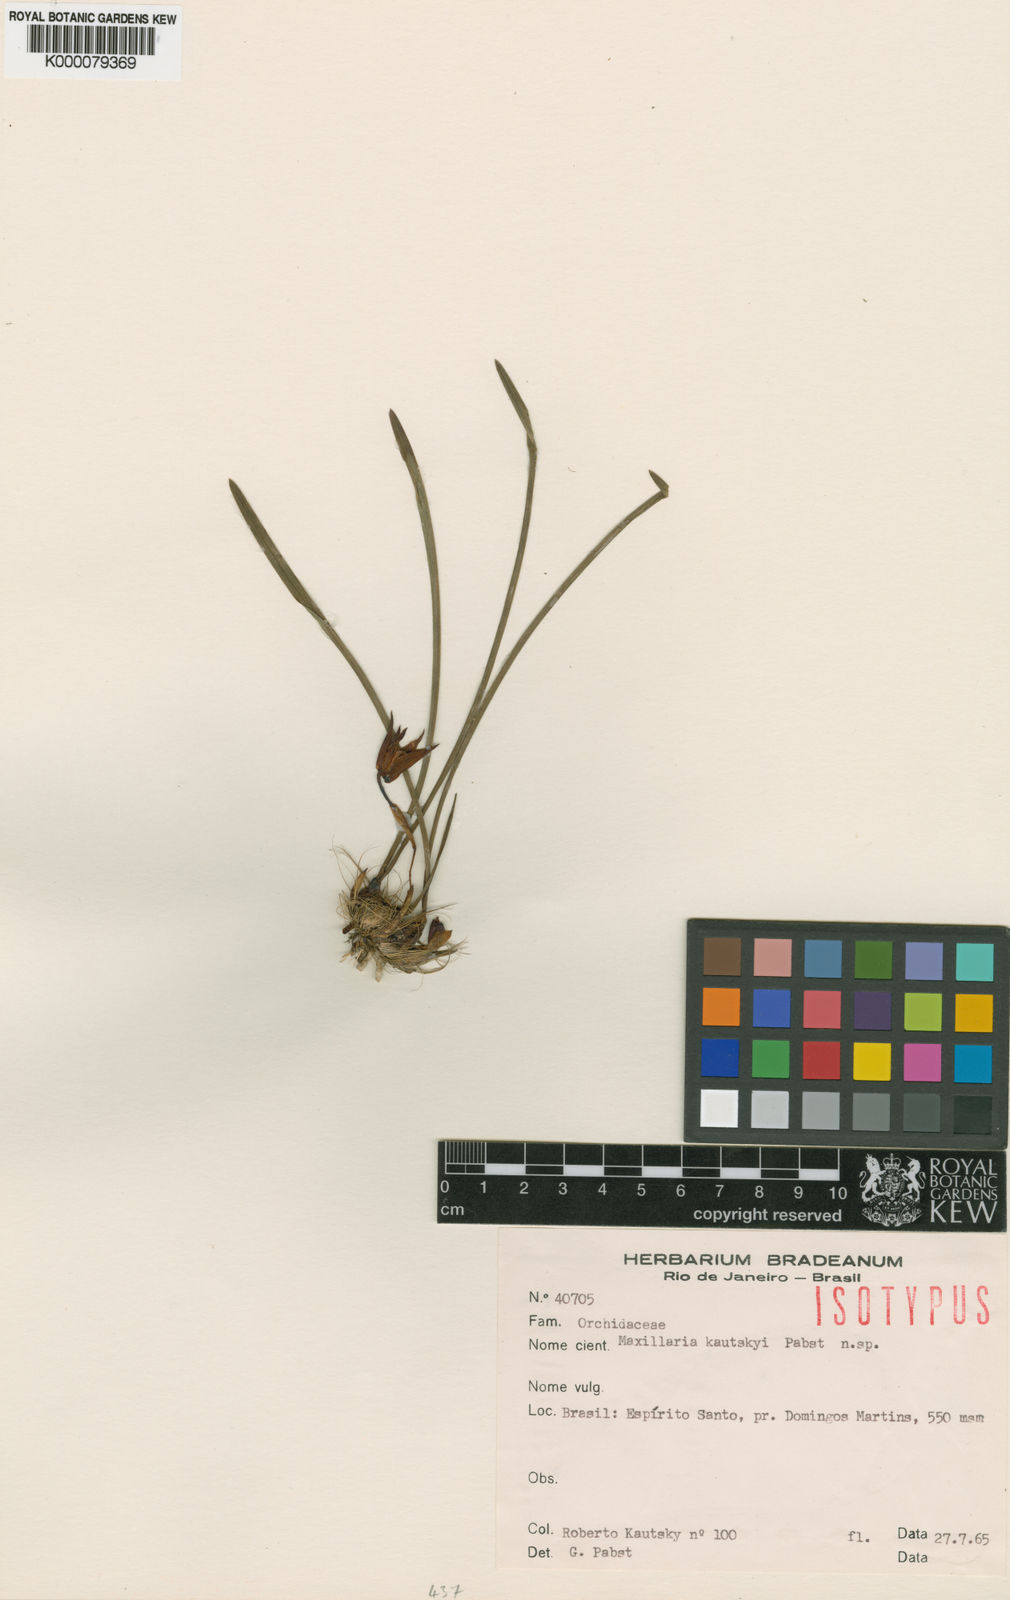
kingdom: Plantae
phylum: Tracheophyta
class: Liliopsida
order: Asparagales
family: Orchidaceae
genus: Maxillaria
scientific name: Maxillaria kautskyi
